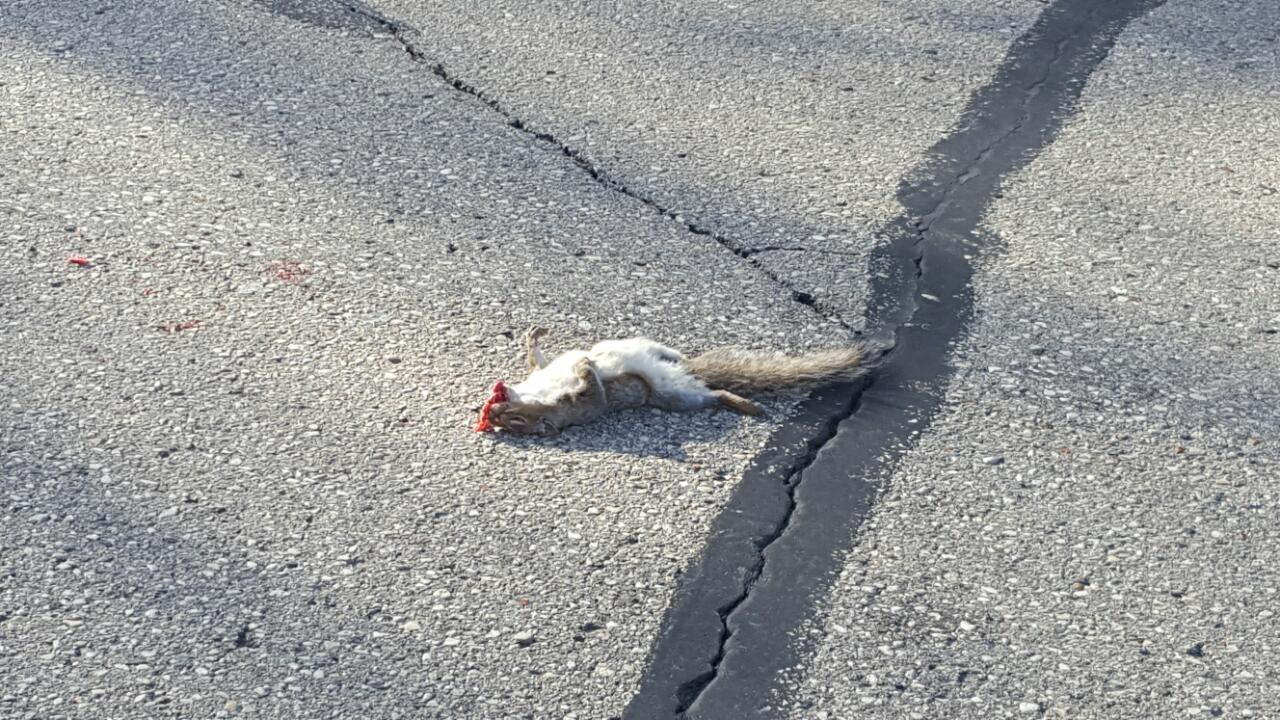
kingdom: Animalia
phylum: Chordata
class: Mammalia
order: Rodentia
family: Sciuridae
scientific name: Sciuridae
